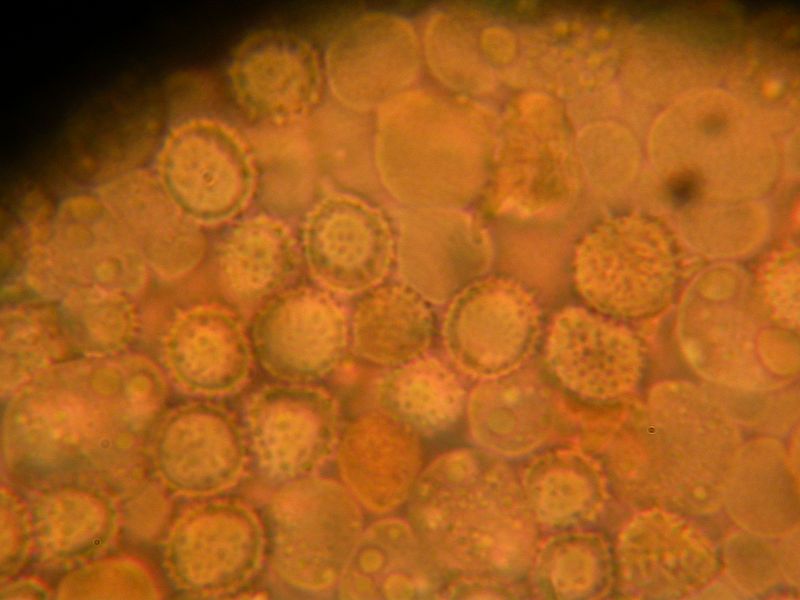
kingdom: Fungi
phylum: Basidiomycota
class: Agaricomycetes
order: Agaricales
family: Hydnangiaceae
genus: Laccaria
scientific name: Laccaria laccata
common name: rød ametysthat
